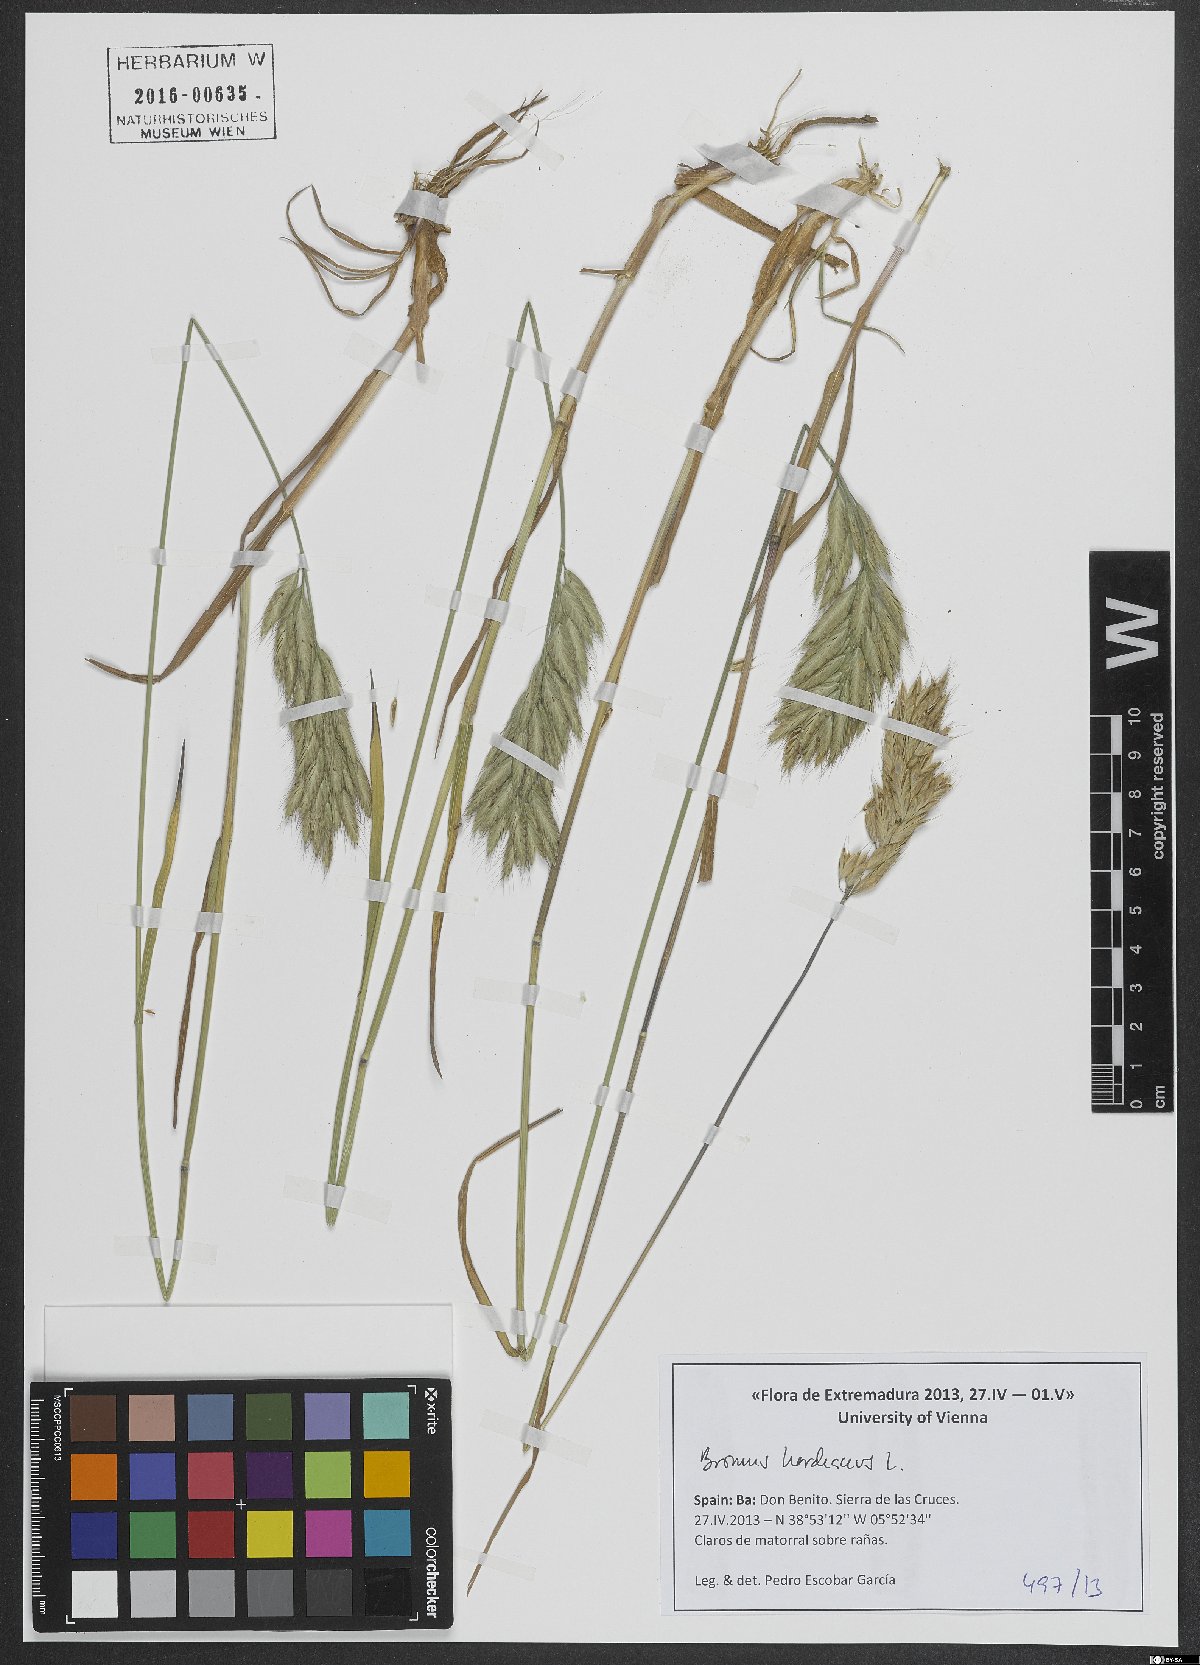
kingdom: Plantae
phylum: Tracheophyta
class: Liliopsida
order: Poales
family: Poaceae
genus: Bromus
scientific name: Bromus hordeaceus
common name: Soft brome
